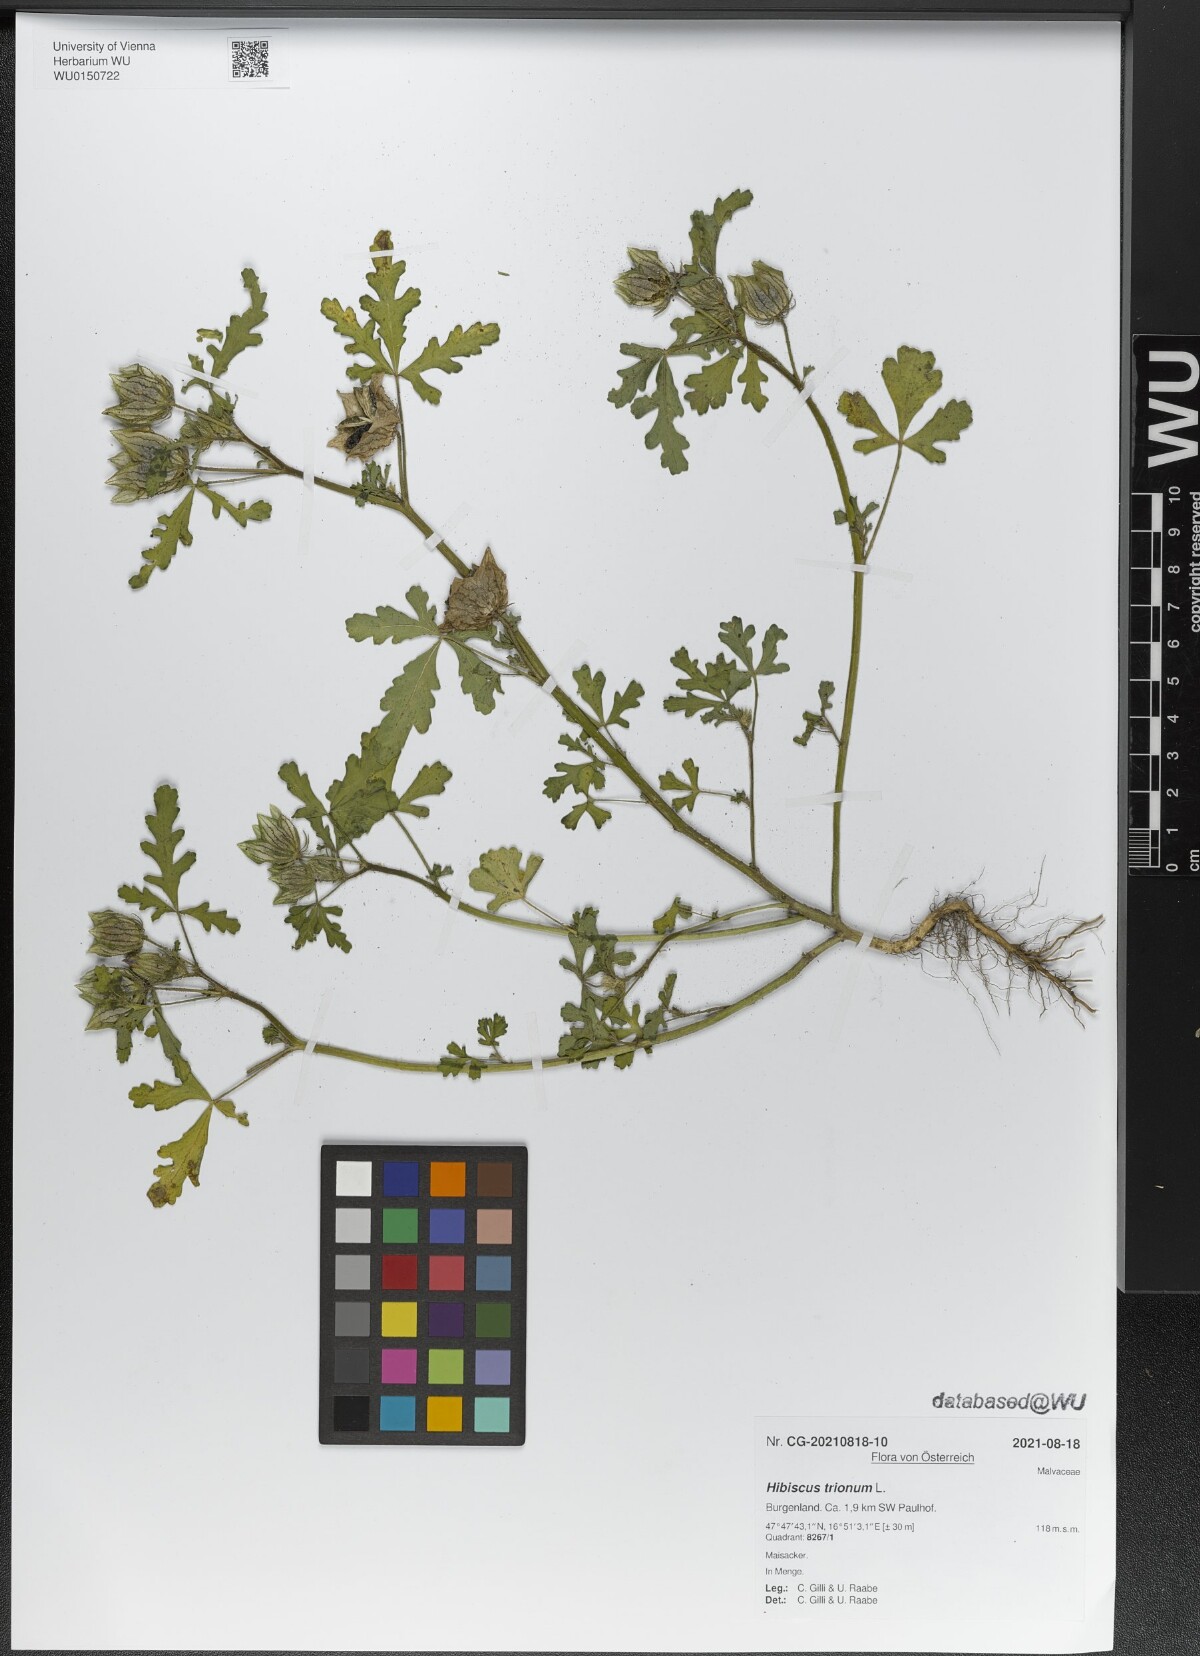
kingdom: Plantae
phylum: Tracheophyta
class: Magnoliopsida
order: Malvales
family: Malvaceae
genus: Hibiscus
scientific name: Hibiscus trionum
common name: Bladder ketmia
